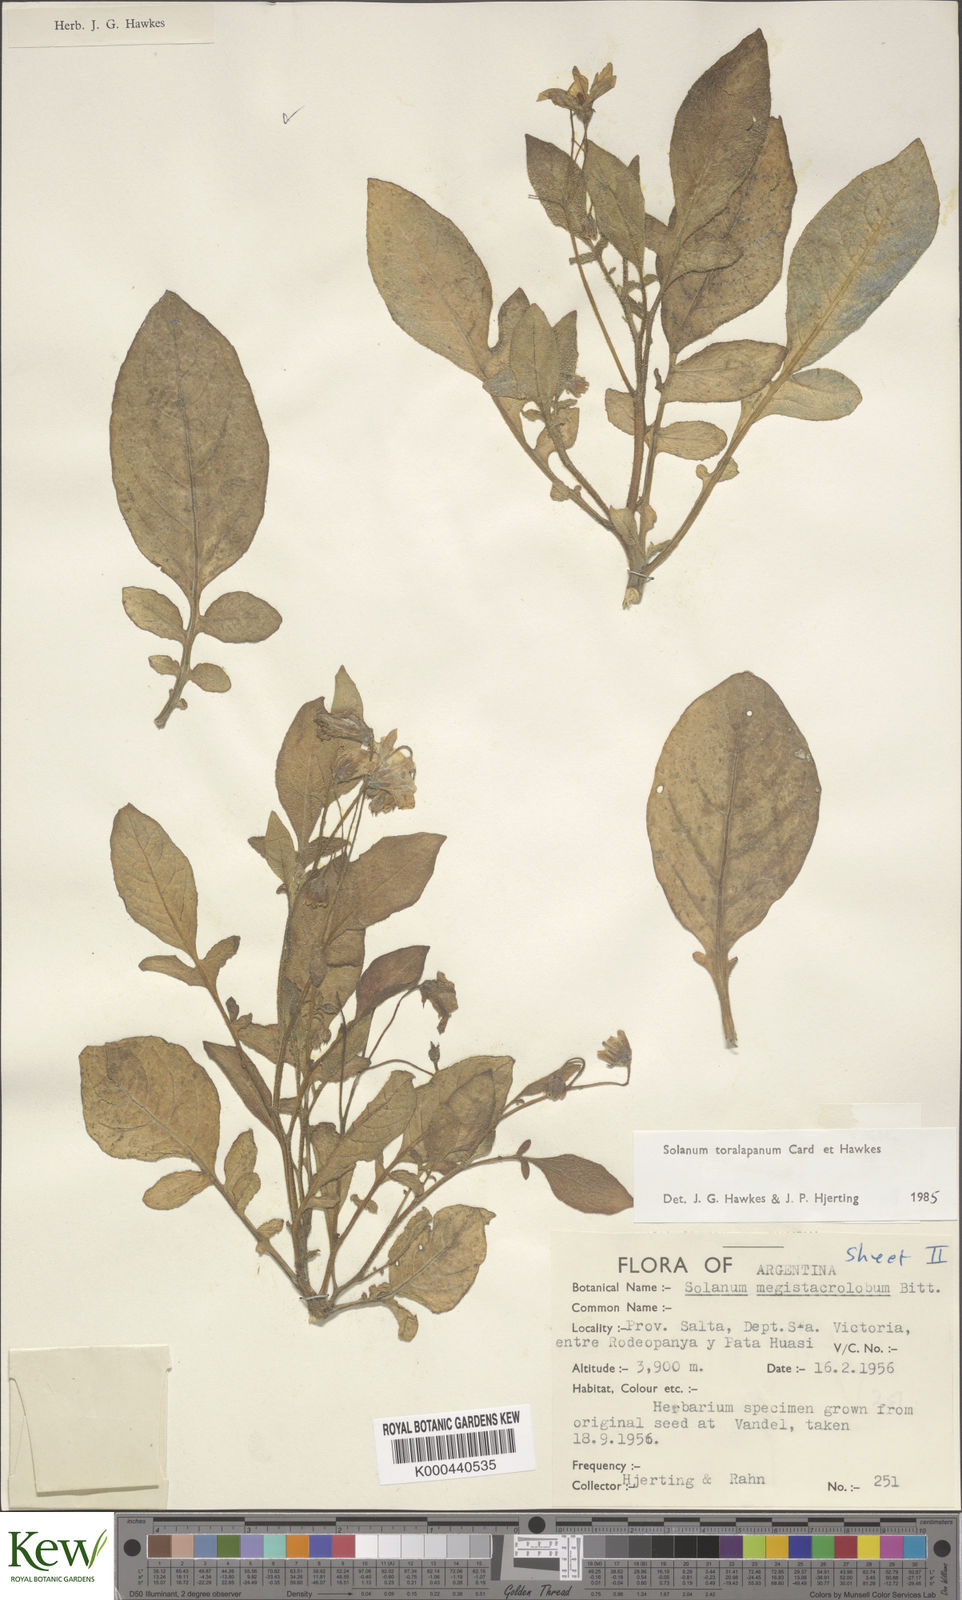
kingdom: Plantae
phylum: Tracheophyta
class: Magnoliopsida
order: Solanales
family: Solanaceae
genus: Solanum
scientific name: Solanum
